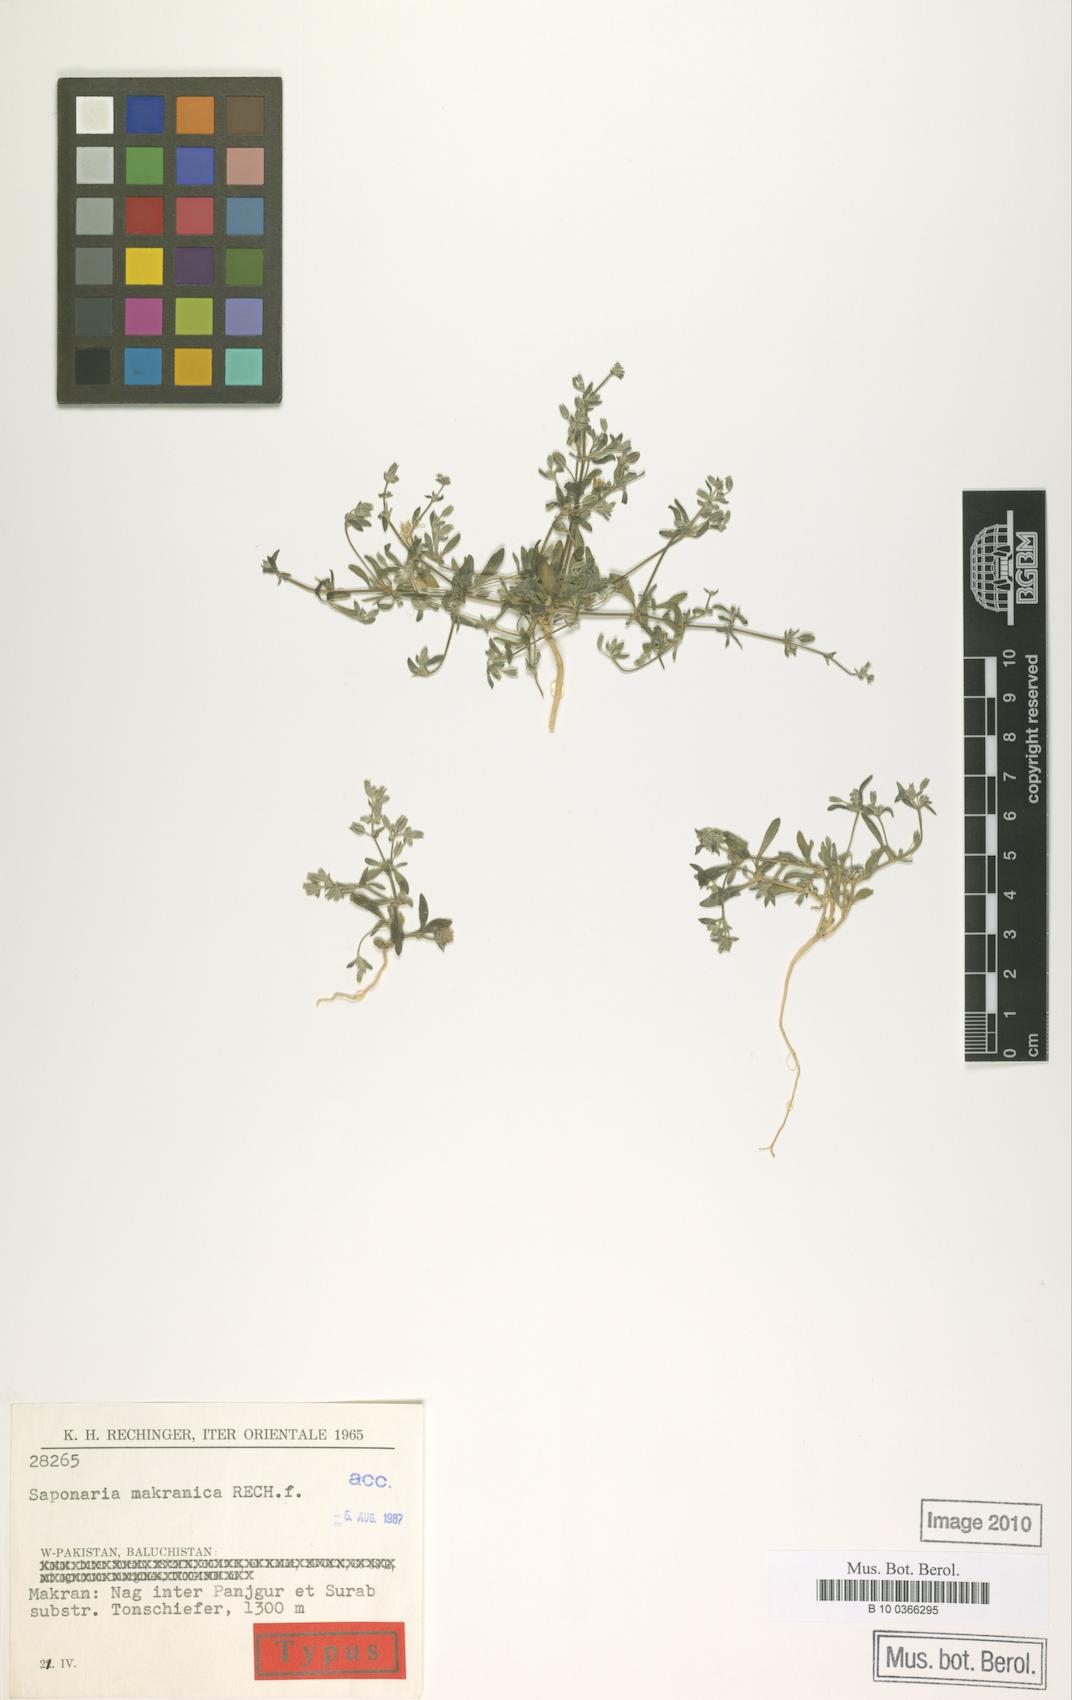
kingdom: Plantae
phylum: Tracheophyta
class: Magnoliopsida
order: Caryophyllales
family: Caryophyllaceae
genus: Acanthophyllum
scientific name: Acanthophyllum makranicum
